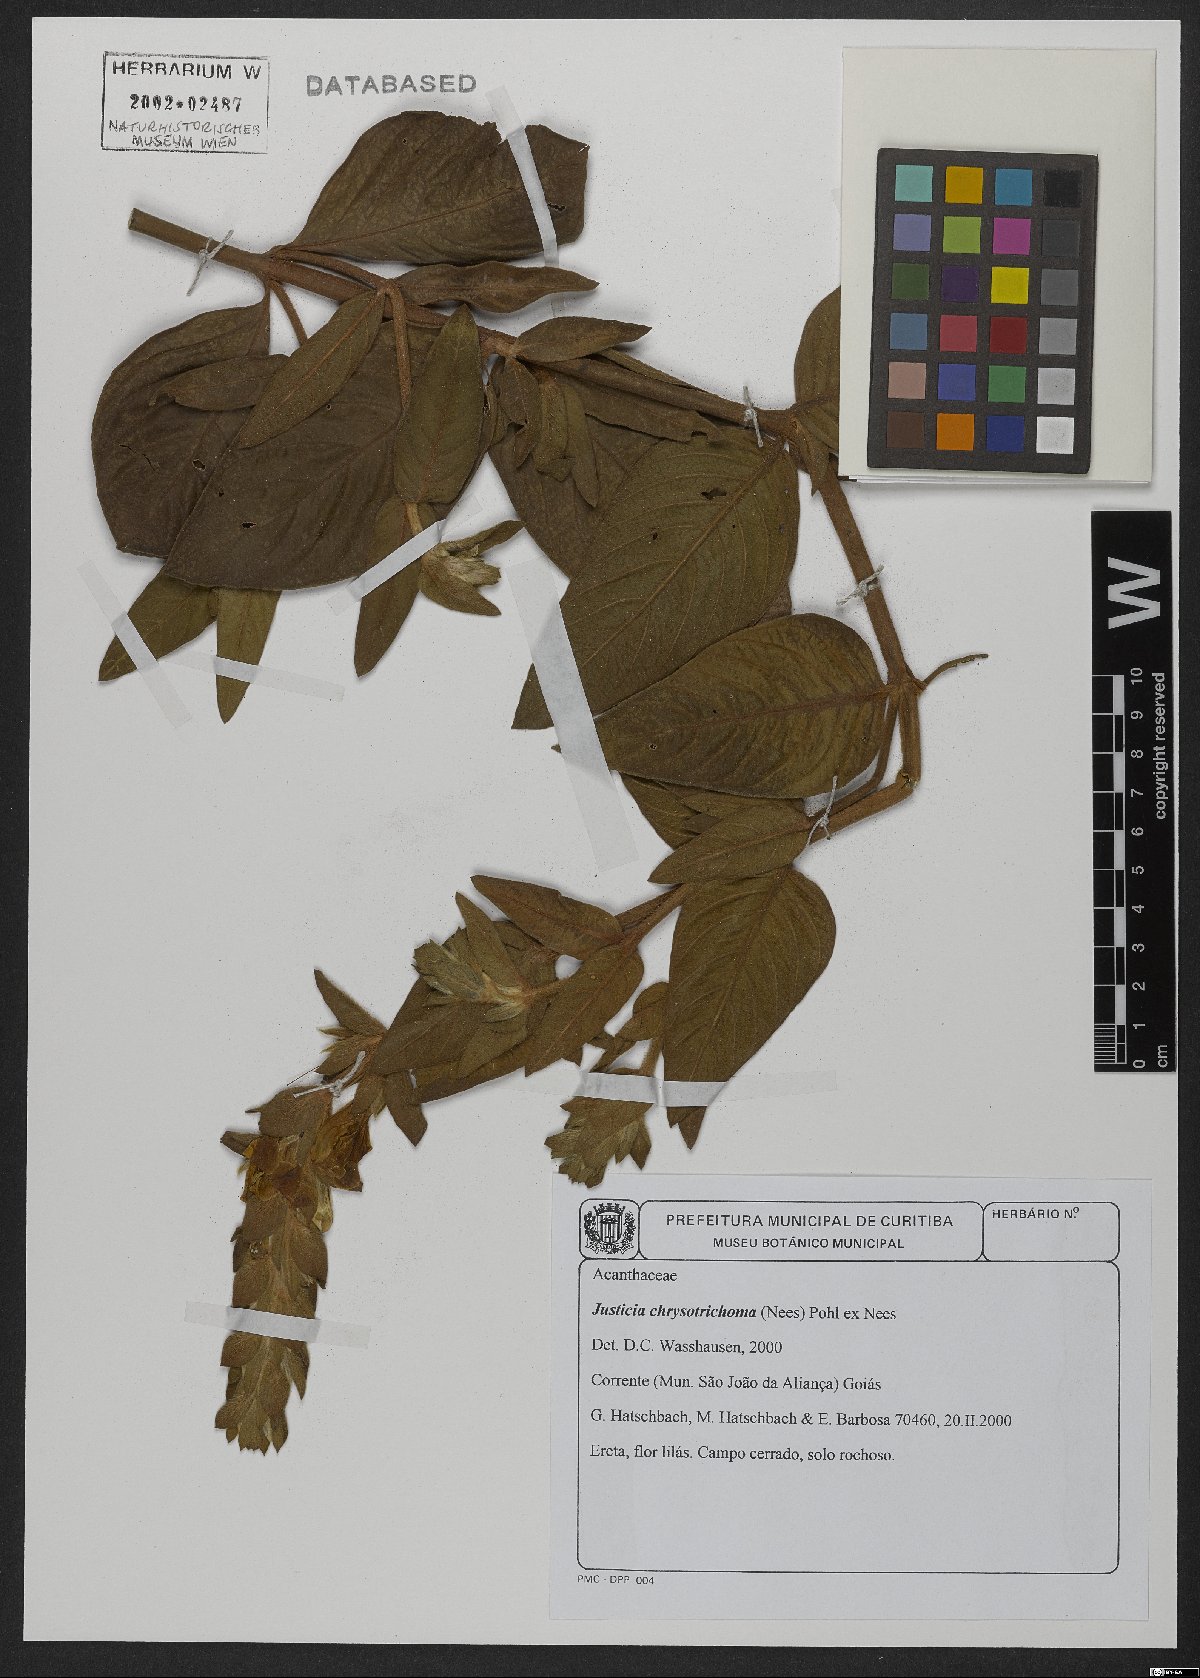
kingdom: Plantae
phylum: Tracheophyta
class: Magnoliopsida
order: Lamiales
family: Acanthaceae
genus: Justicia
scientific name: Justicia chrysotrichoma
